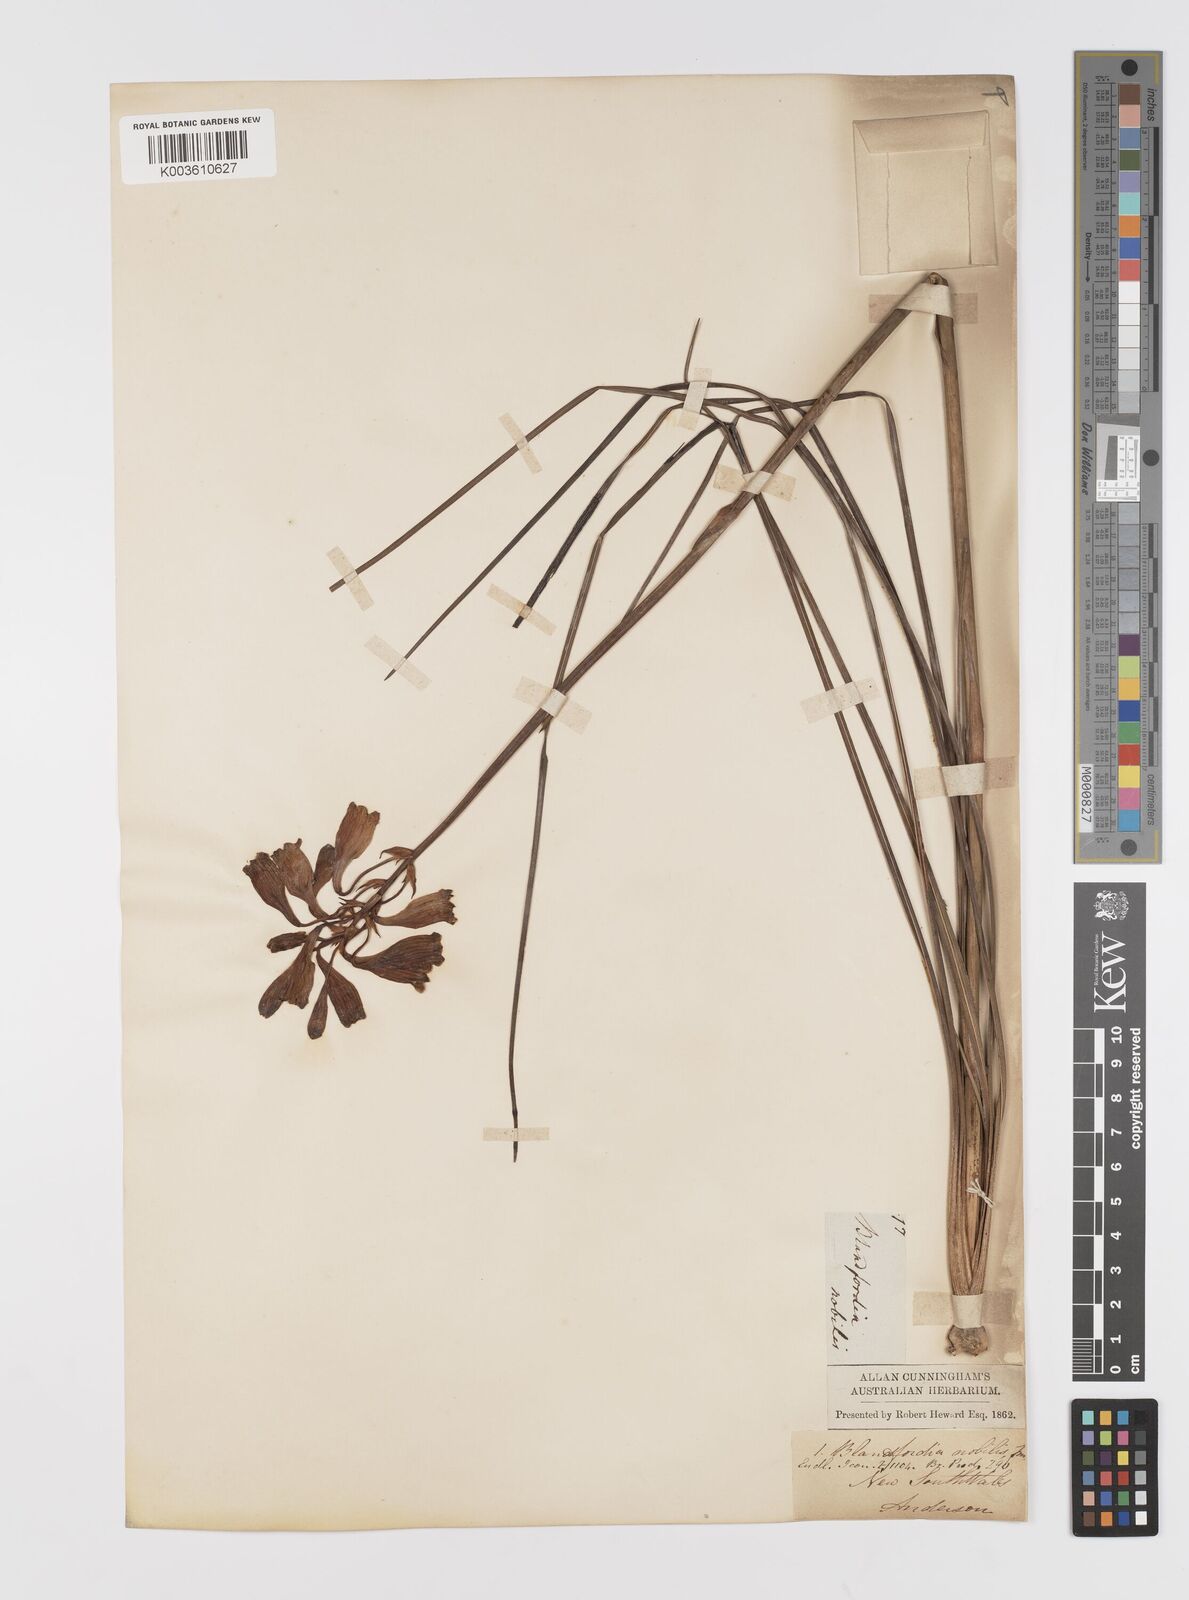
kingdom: Plantae
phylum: Tracheophyta
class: Liliopsida
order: Asparagales
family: Blandfordiaceae
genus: Blandfordia
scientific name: Blandfordia nobilis
